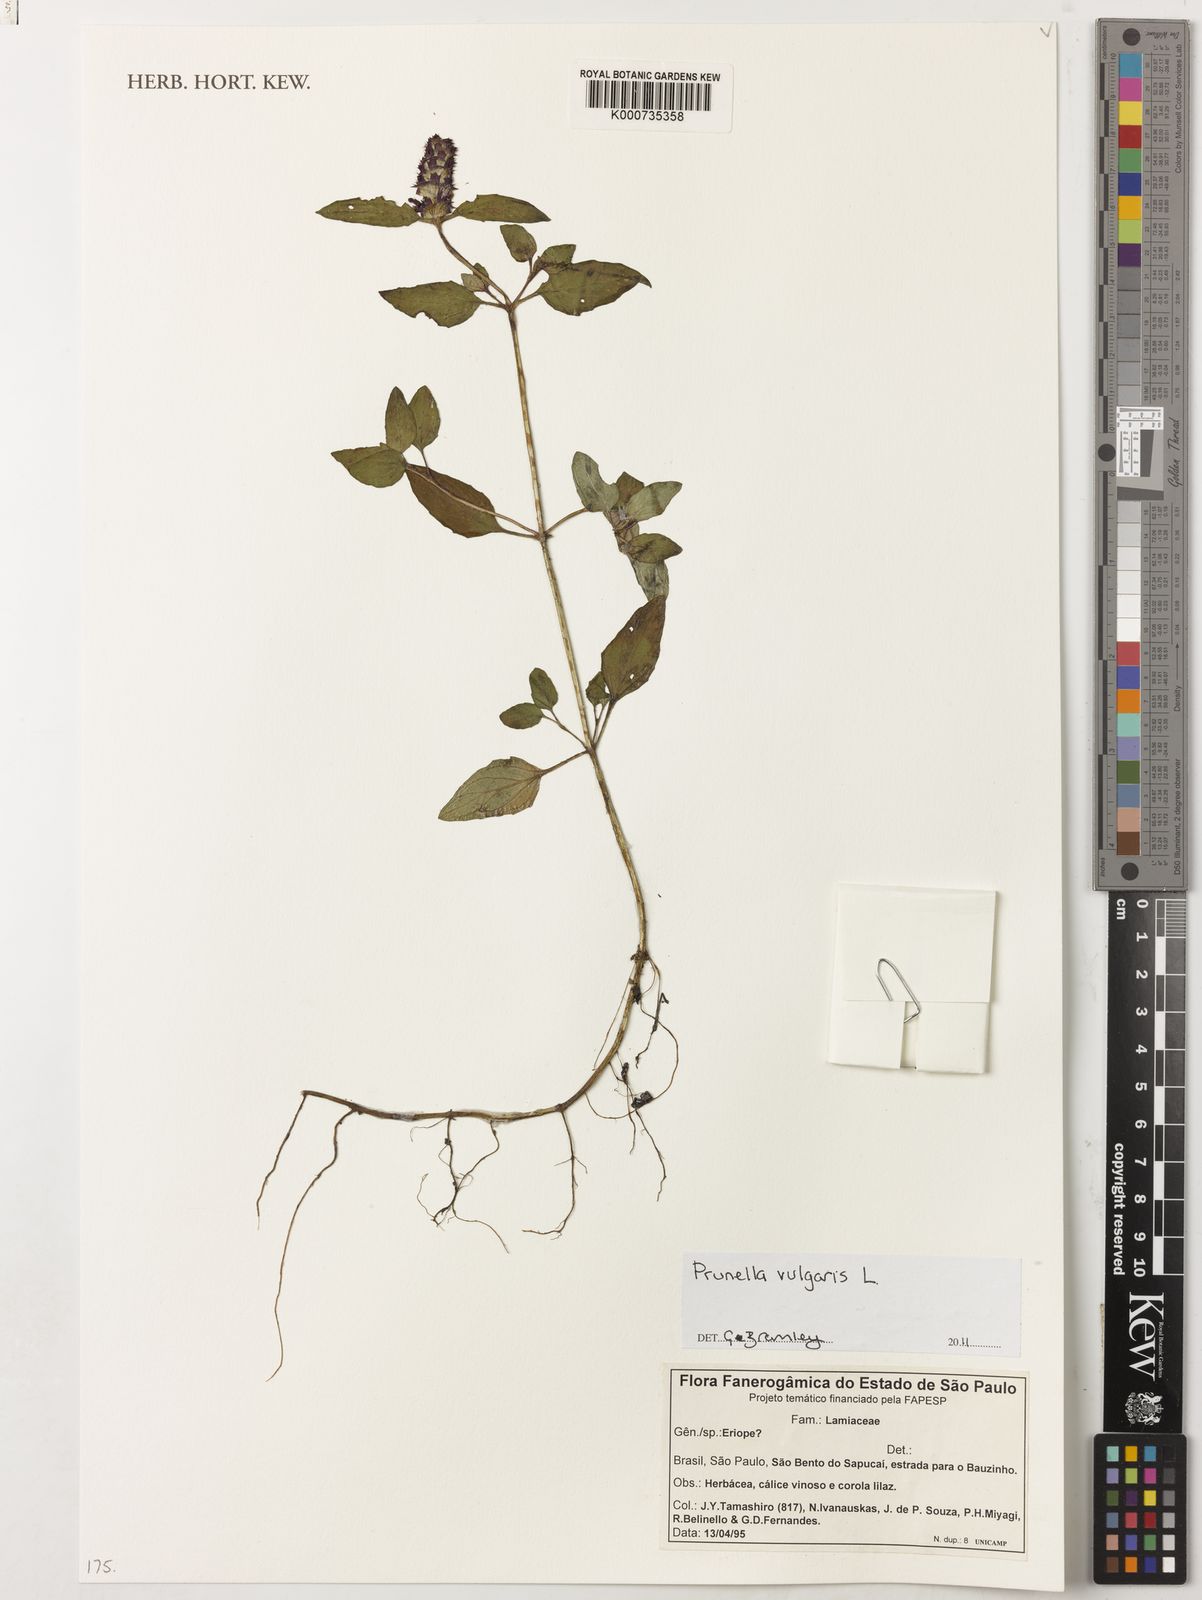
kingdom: Plantae
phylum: Tracheophyta
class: Magnoliopsida
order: Lamiales
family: Lamiaceae
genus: Prunella
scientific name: Prunella vulgaris
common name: Heal-all
